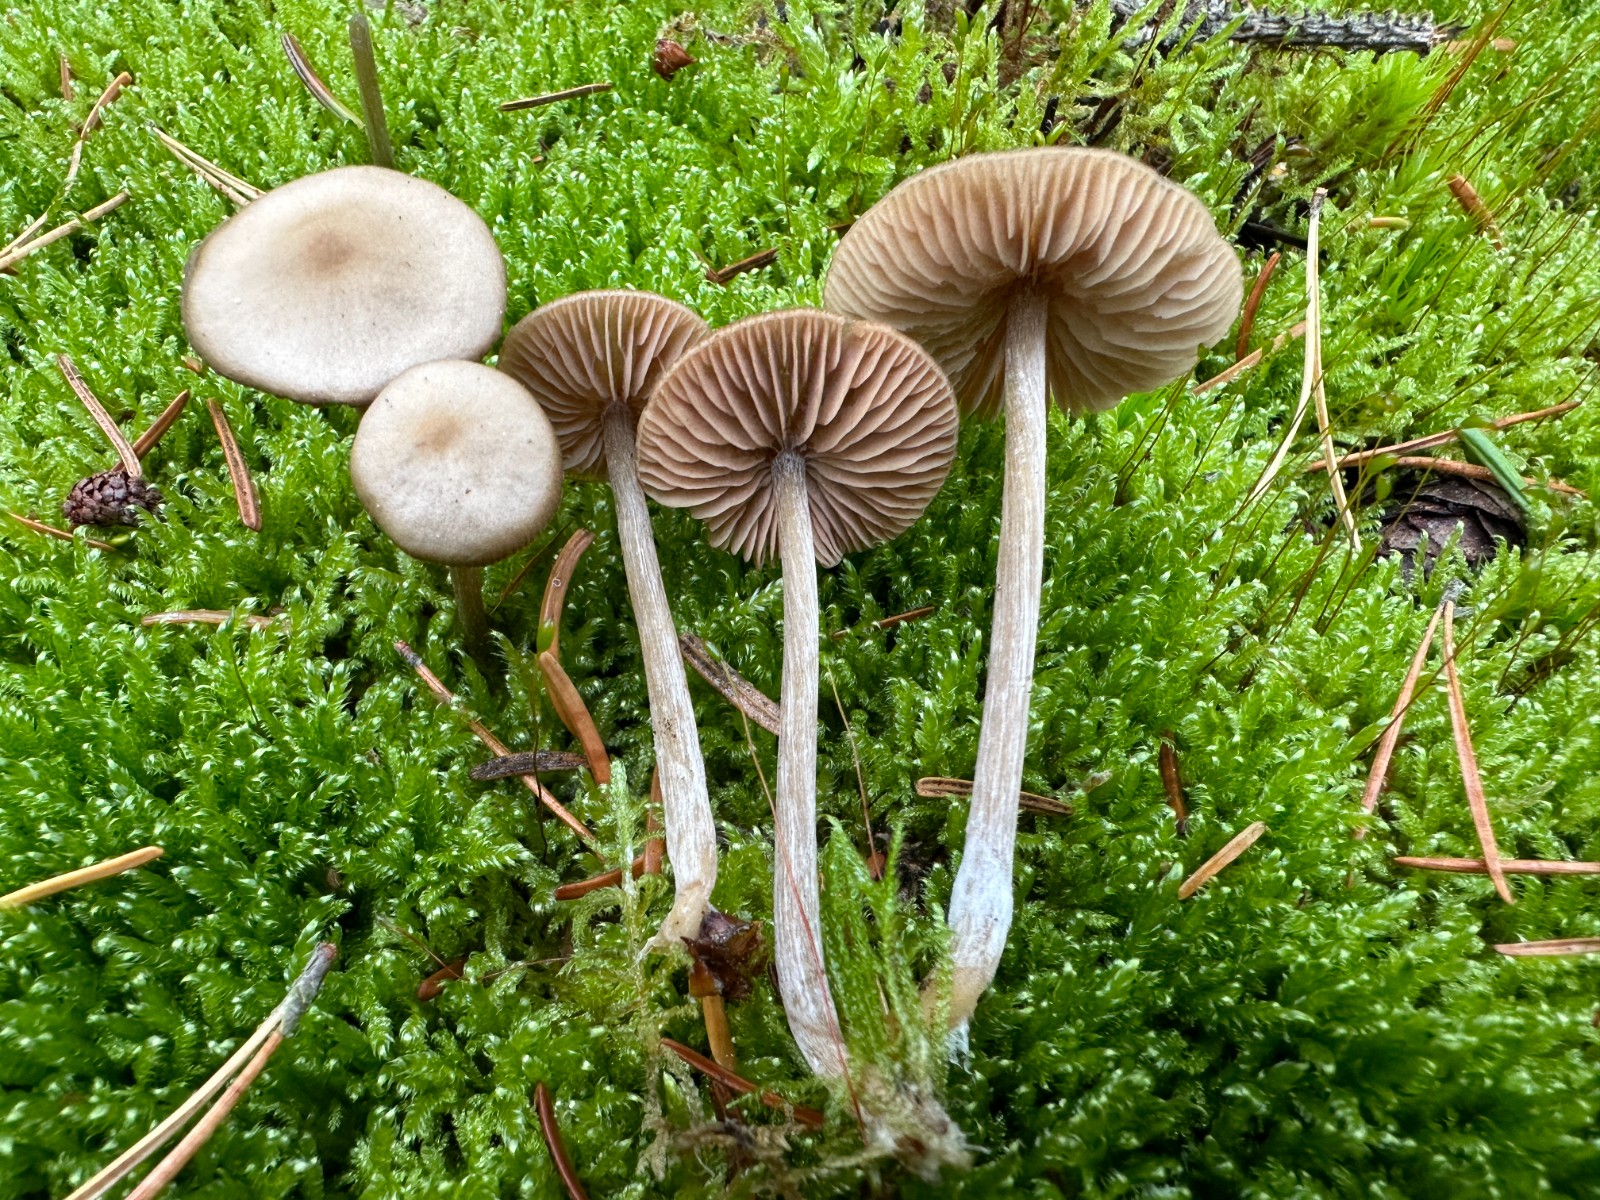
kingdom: Fungi
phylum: Basidiomycota
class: Agaricomycetes
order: Agaricales
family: Entolomataceae
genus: Entoloma
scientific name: Entoloma
